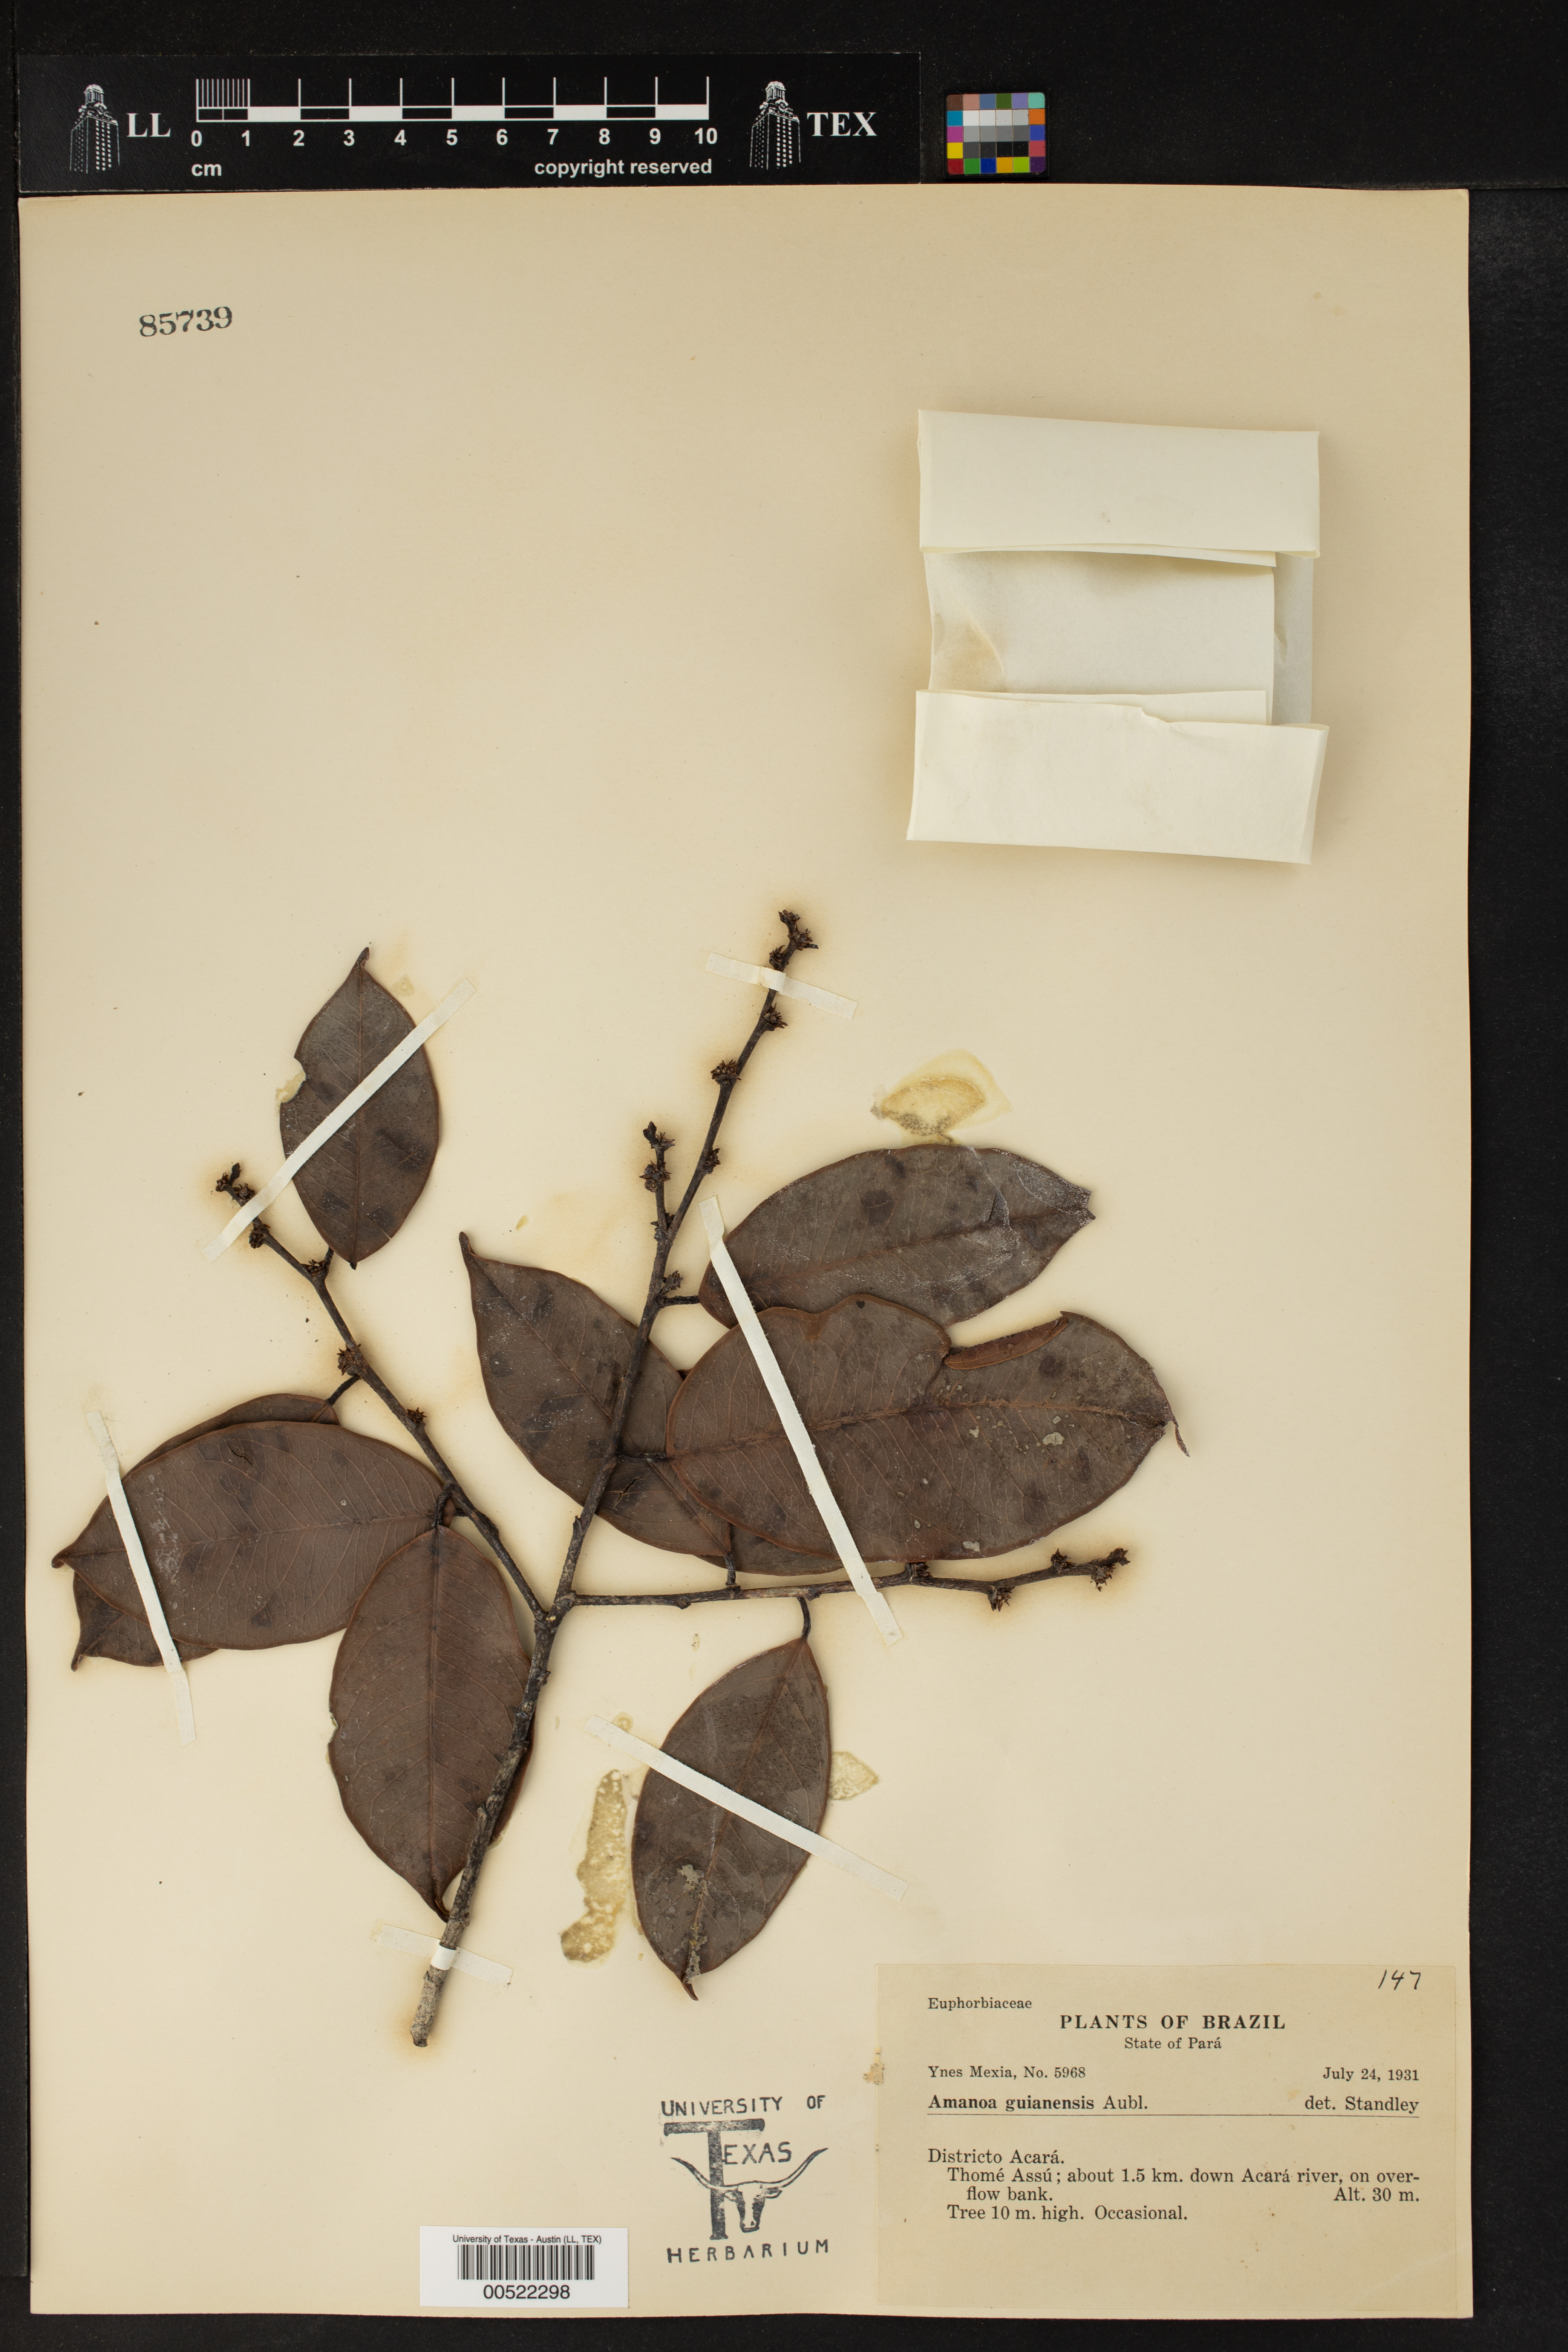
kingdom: Plantae
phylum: Tracheophyta
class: Magnoliopsida
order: Malpighiales
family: Phyllanthaceae
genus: Amanoa
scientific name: Amanoa guianensis
